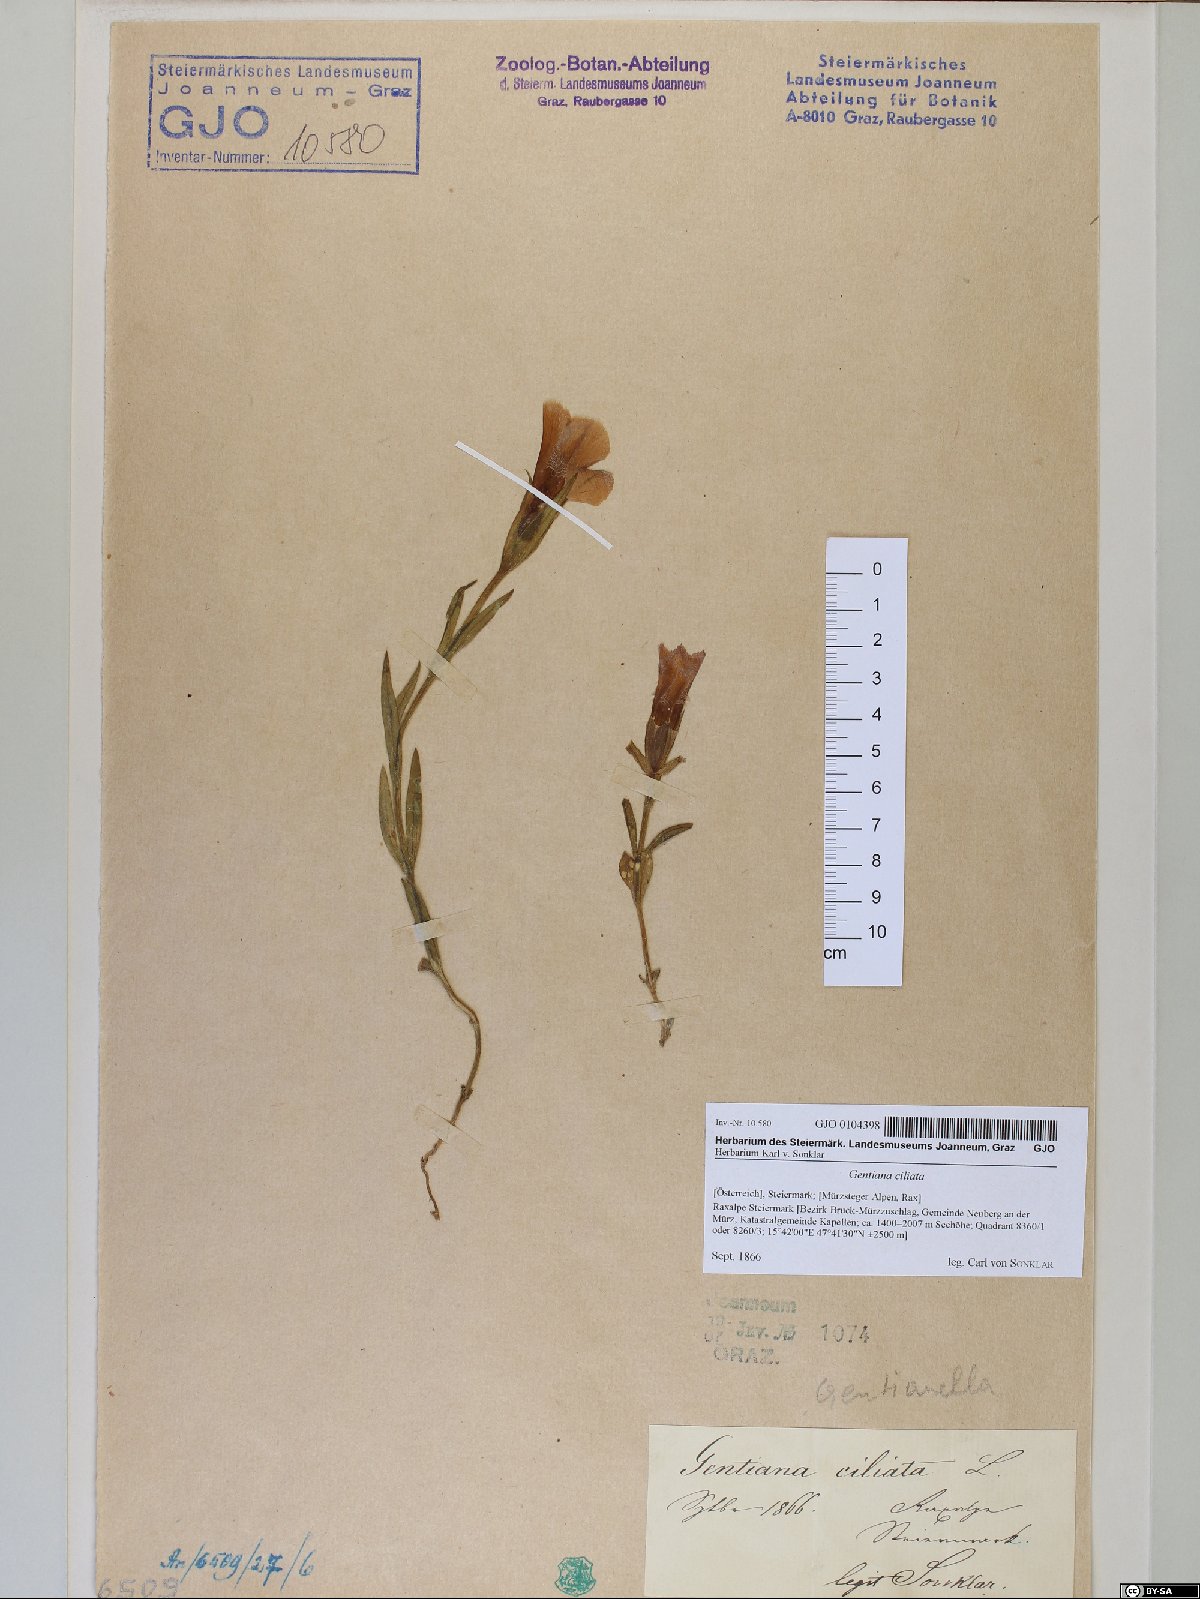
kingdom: Plantae
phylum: Tracheophyta
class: Magnoliopsida
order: Gentianales
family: Gentianaceae
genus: Gentianopsis
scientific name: Gentianopsis ciliata
